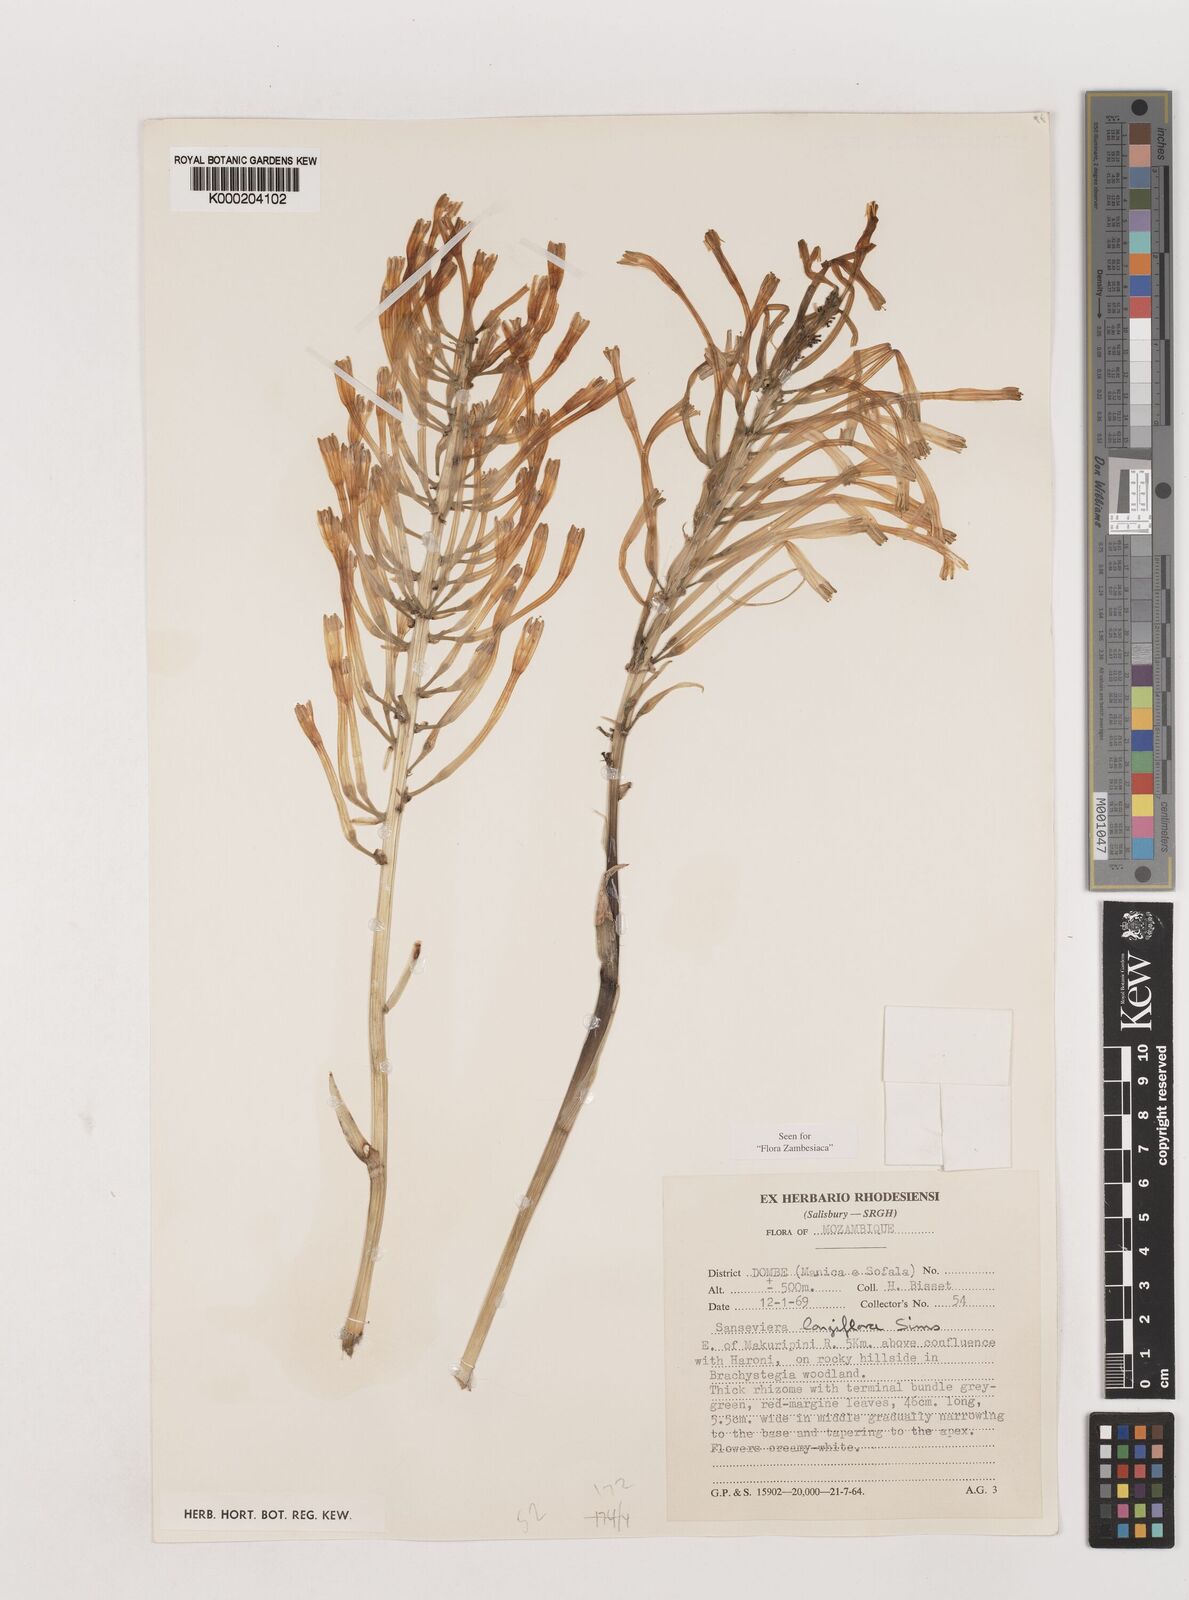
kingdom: Plantae
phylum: Tracheophyta
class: Liliopsida
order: Asparagales
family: Asparagaceae
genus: Dracaena
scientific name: Dracaena longiflora
